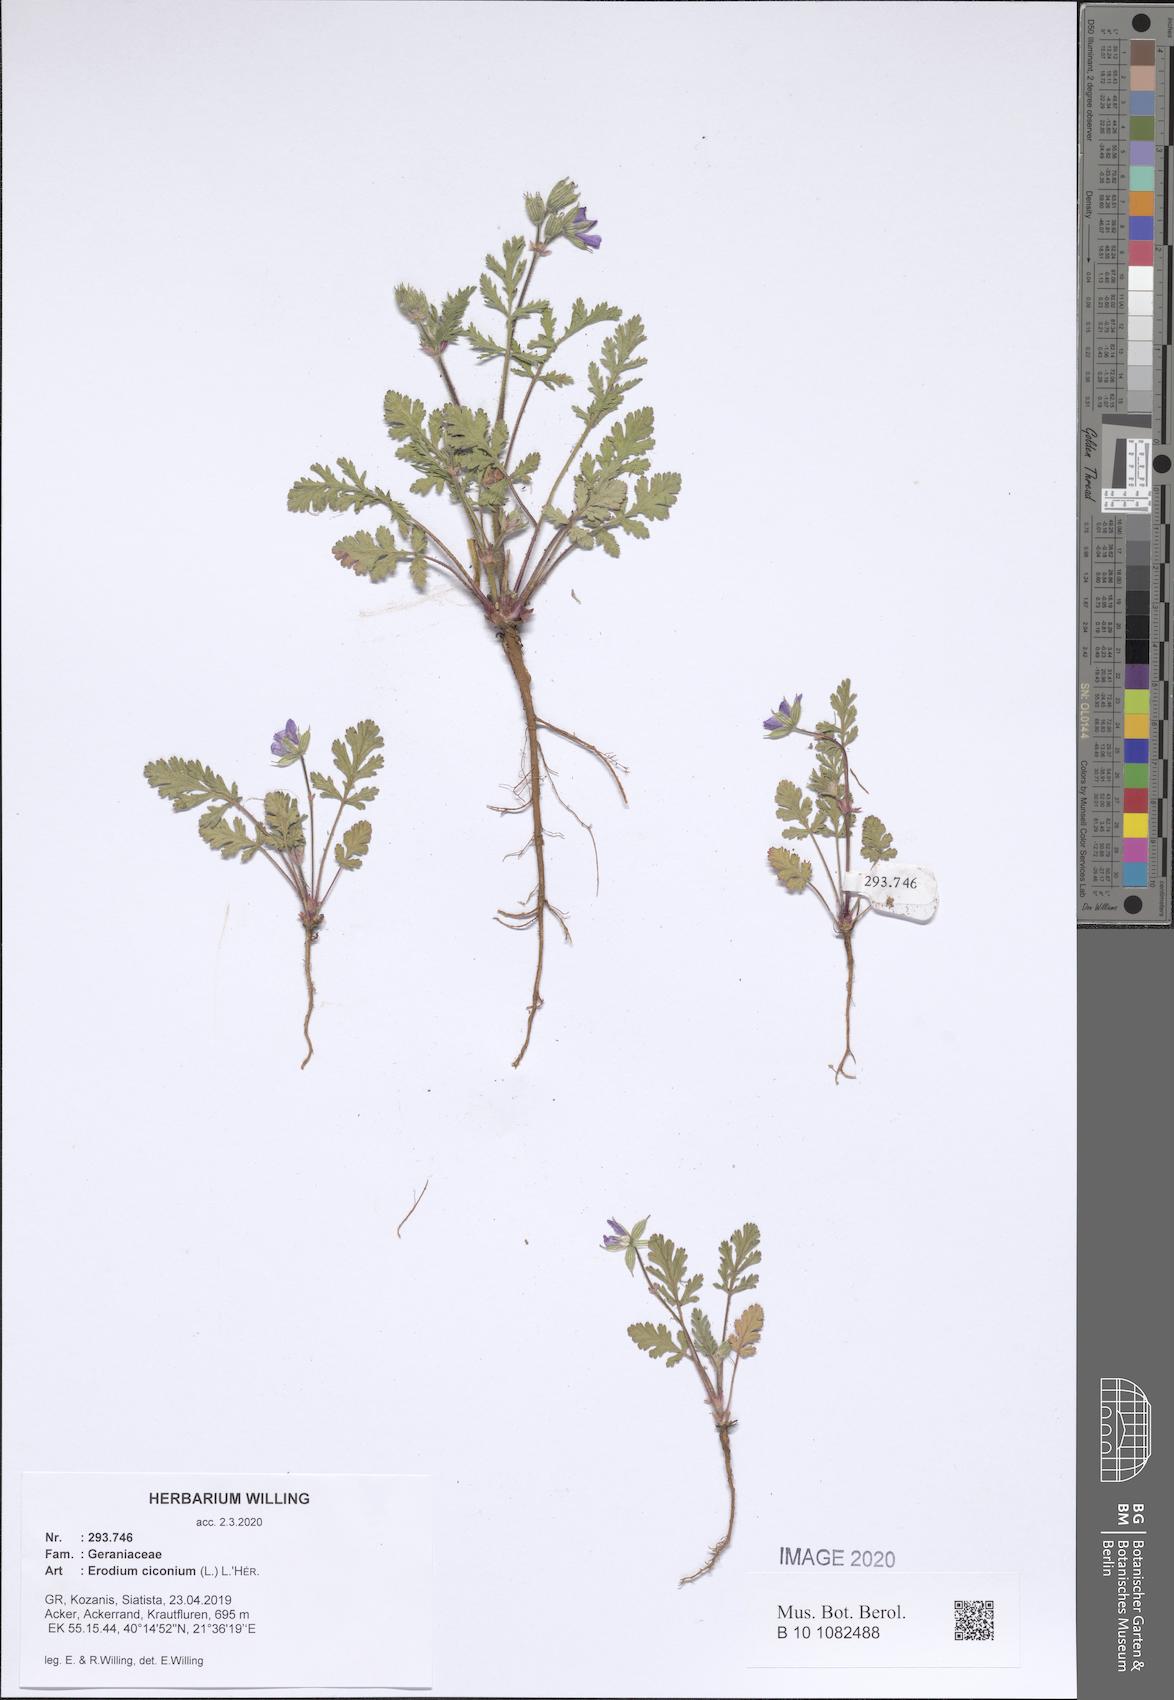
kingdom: Plantae
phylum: Tracheophyta
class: Magnoliopsida
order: Geraniales
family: Geraniaceae
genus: Erodium
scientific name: Erodium ciconium
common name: Common stork's bill
